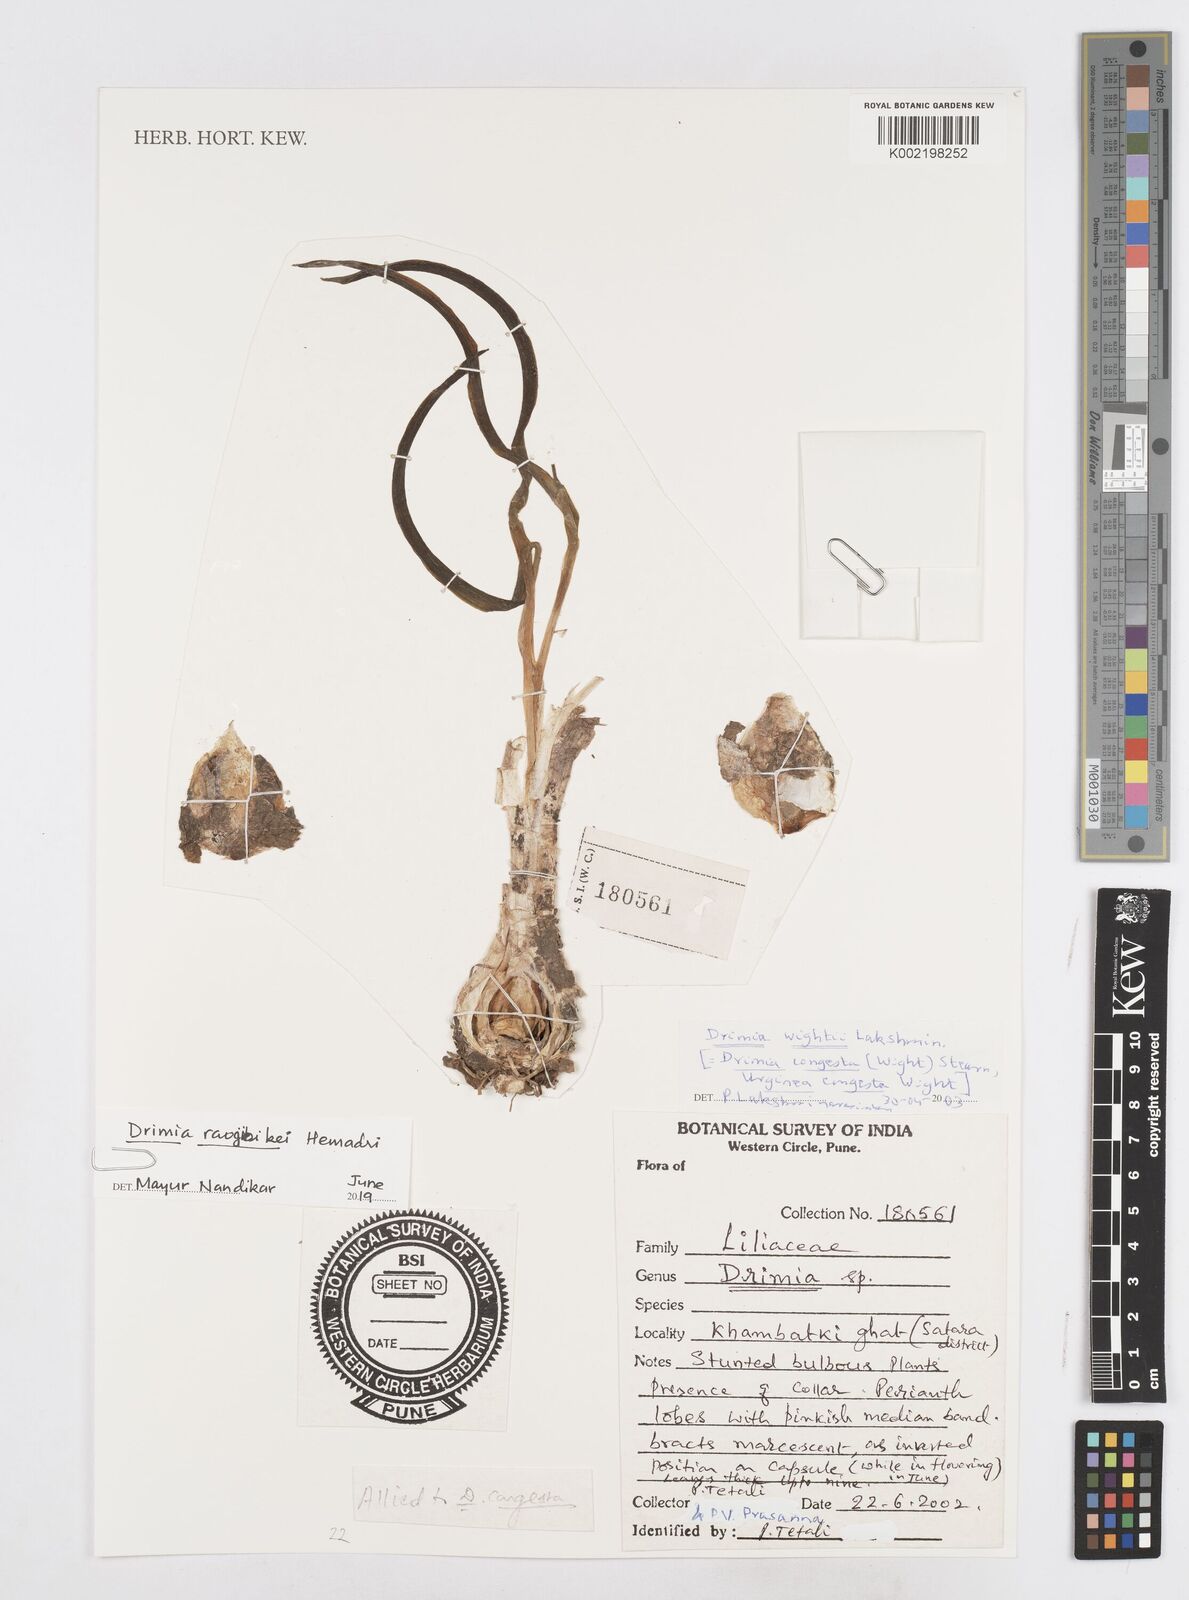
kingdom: Plantae
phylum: Tracheophyta
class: Liliopsida
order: Asparagales
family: Asparagaceae
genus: Drimia
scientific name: Drimia raogibikei
